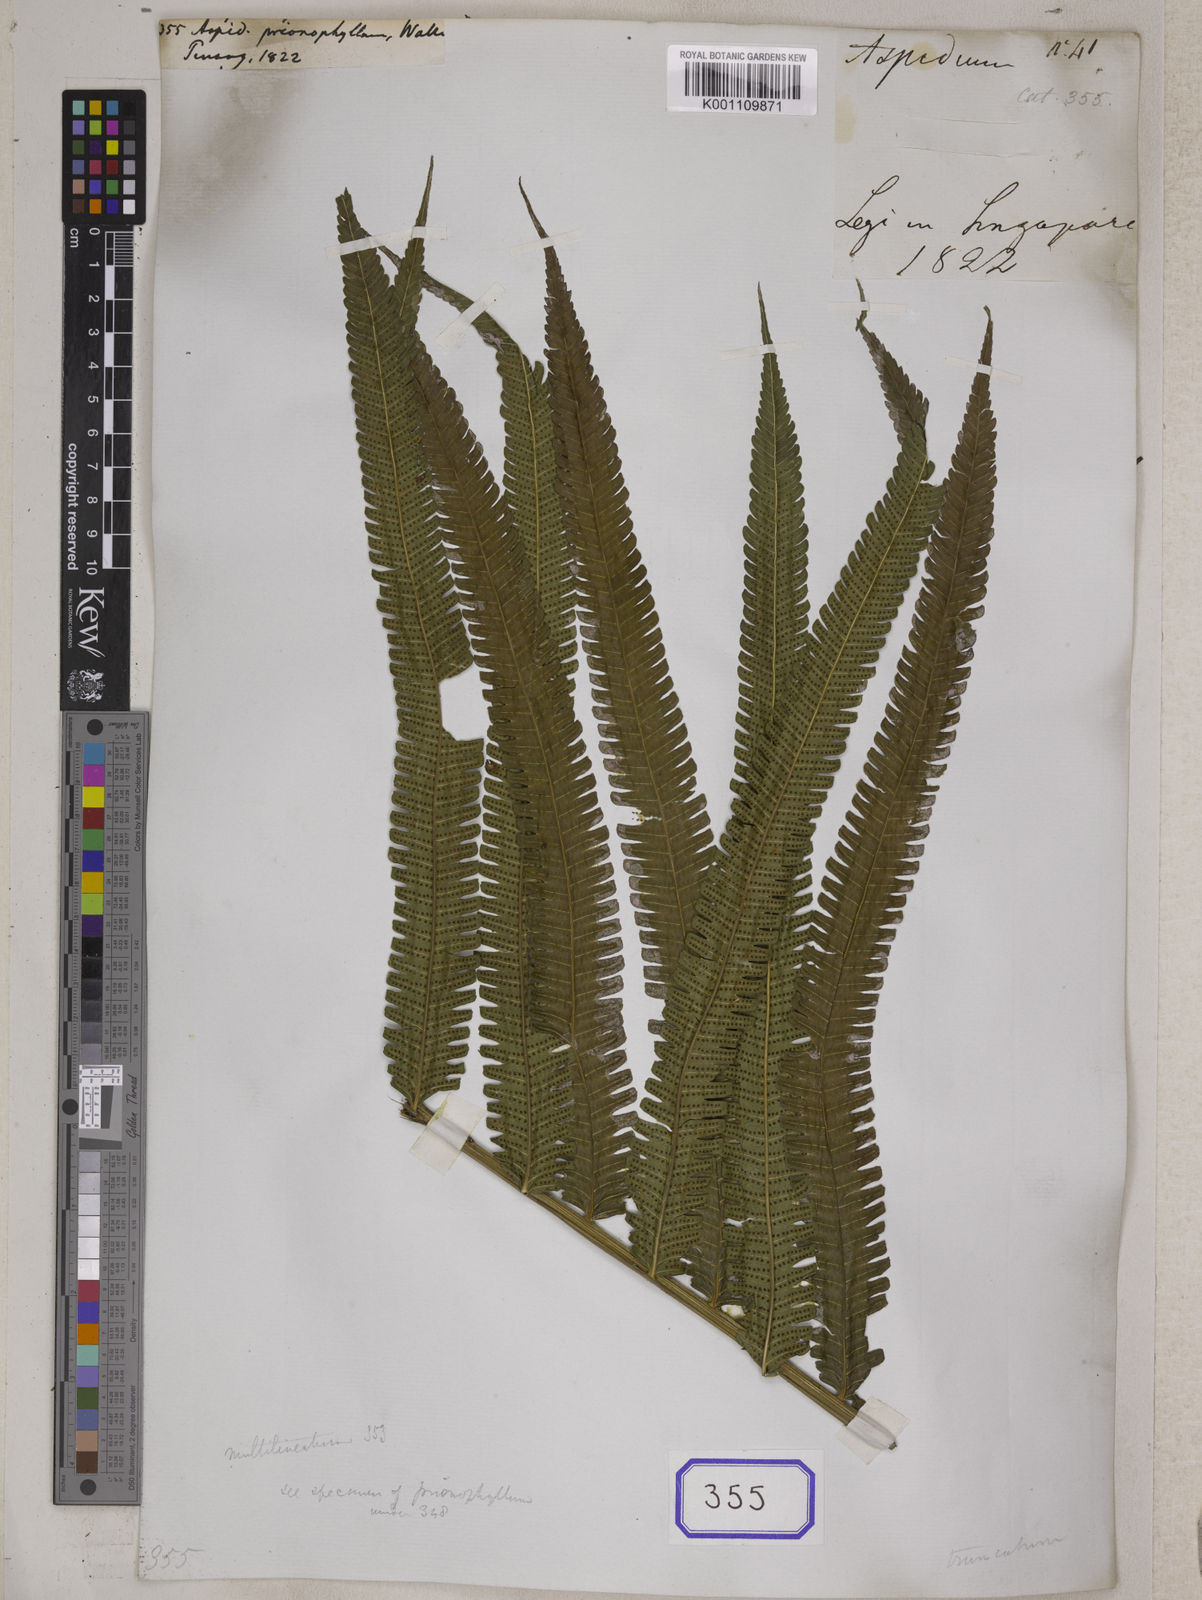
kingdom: Plantae
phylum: Tracheophyta
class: Polypodiopsida
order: Polypodiales
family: Thelypteridaceae
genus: Amblovenatum
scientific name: Amblovenatum immersum
